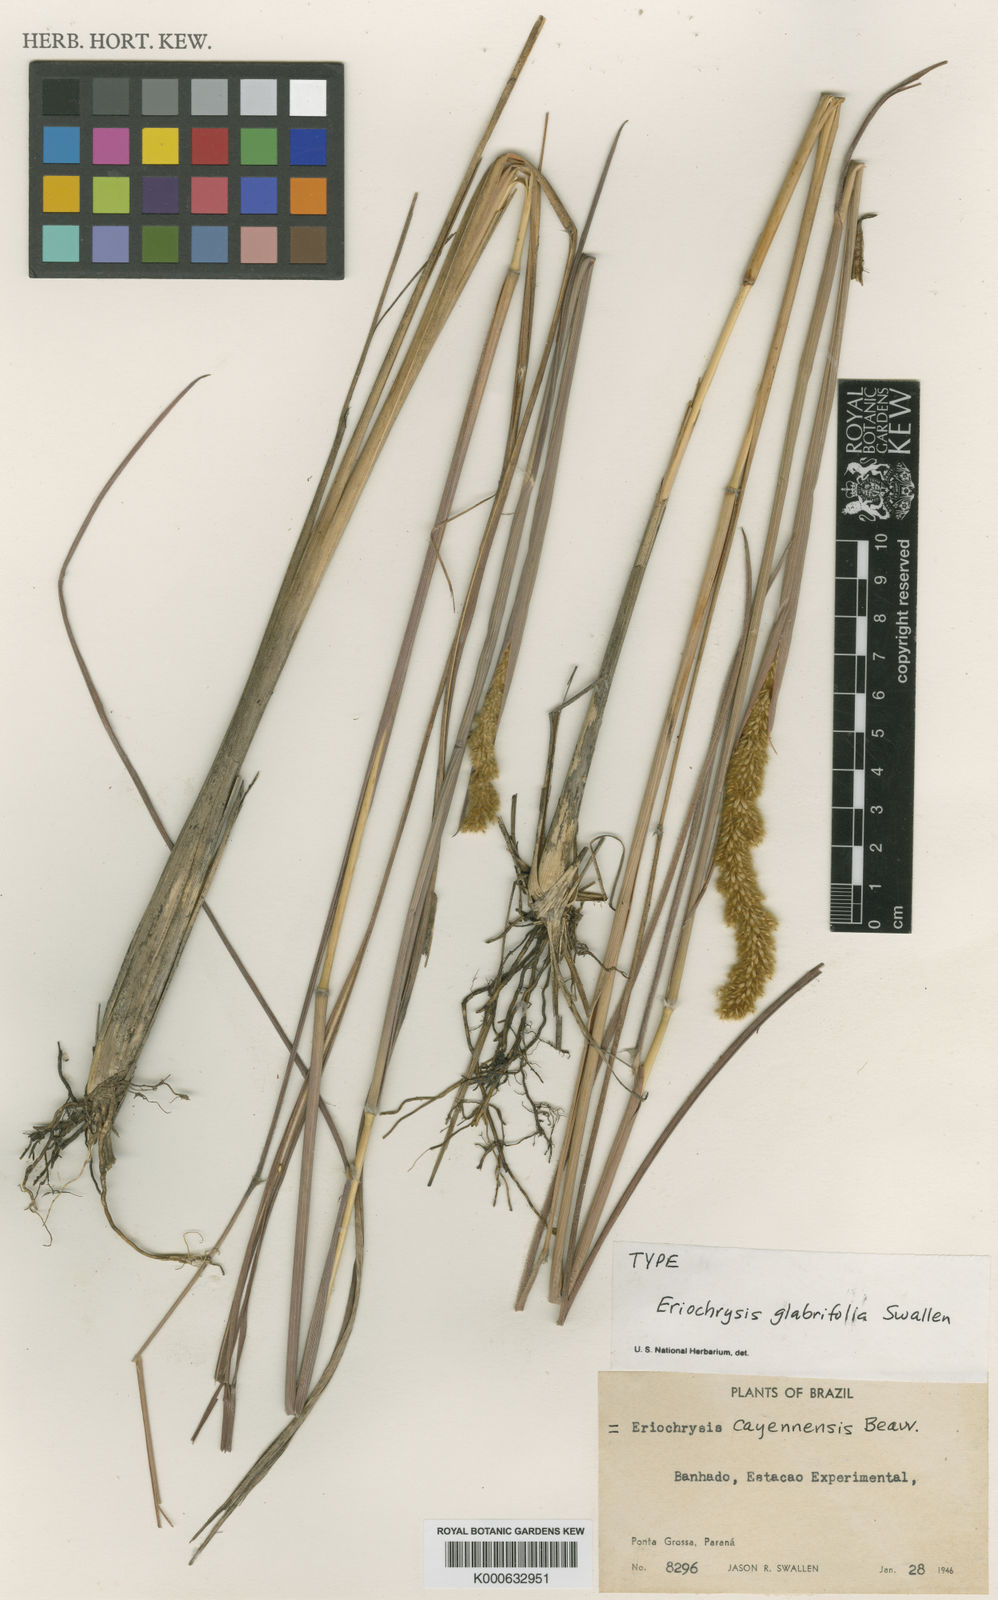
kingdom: Plantae
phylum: Tracheophyta
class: Liliopsida
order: Poales
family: Poaceae
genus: Eriochrysis
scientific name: Eriochrysis cayennensis
